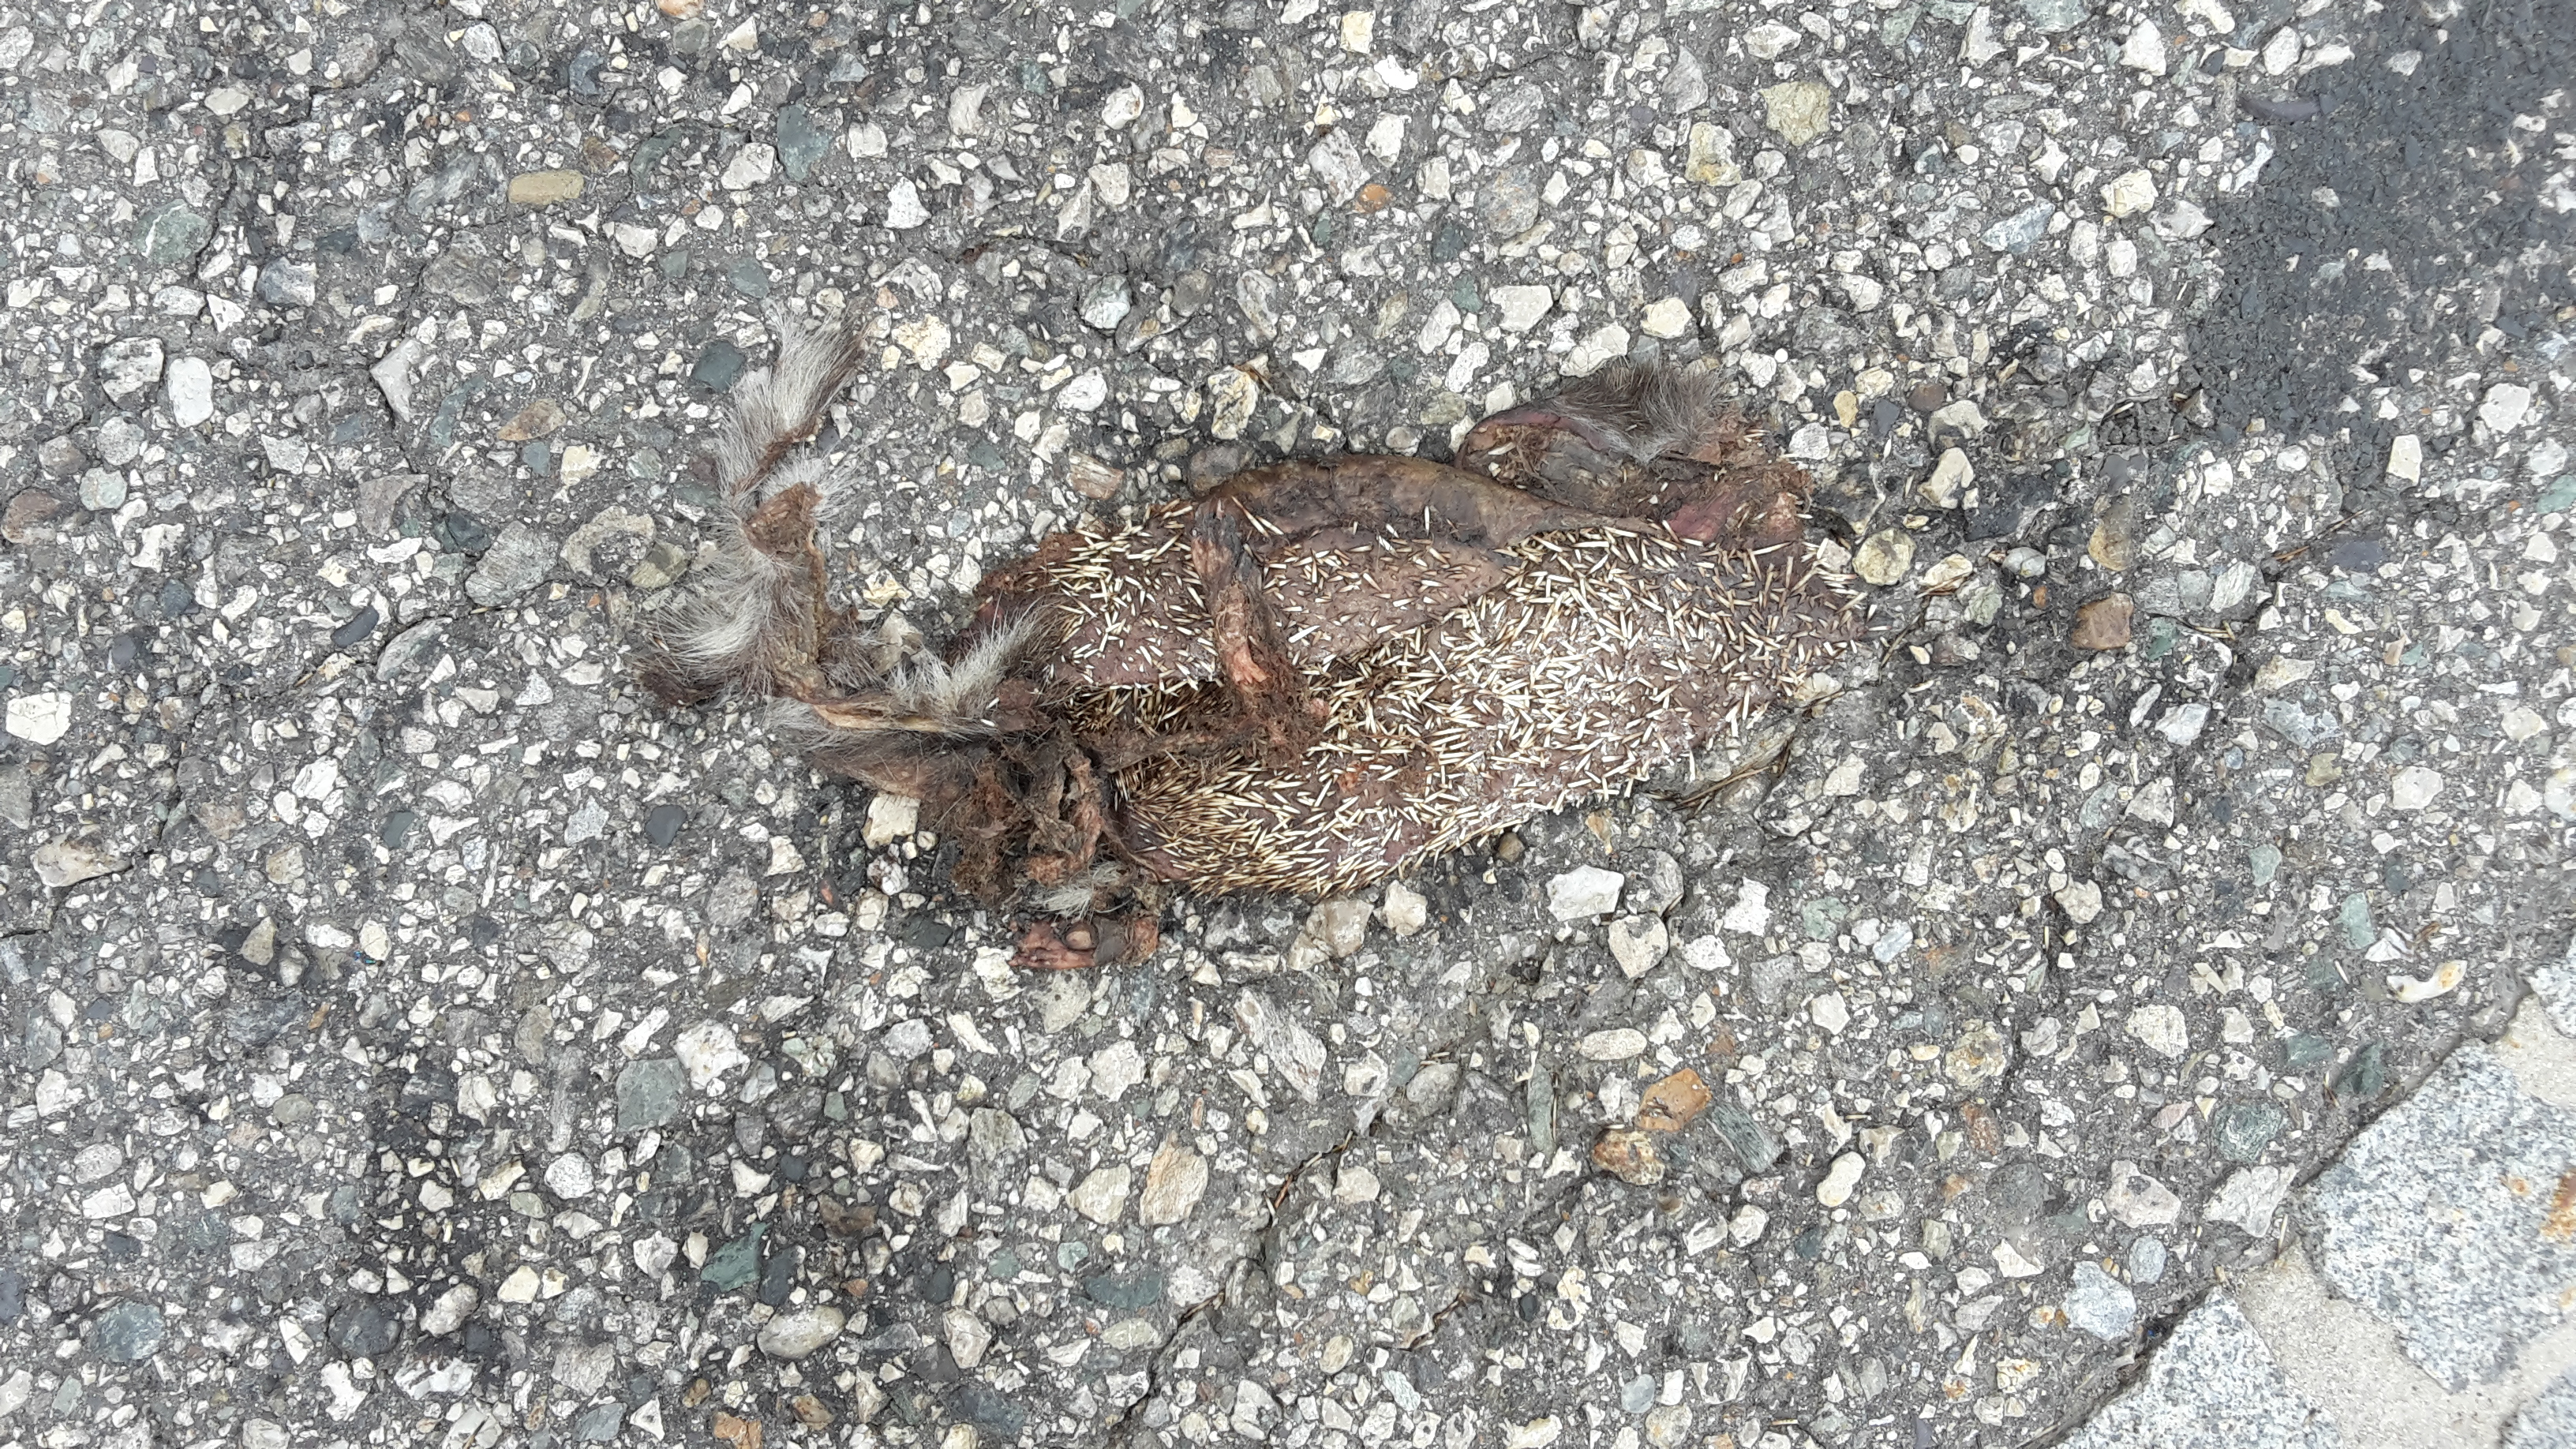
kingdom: Animalia
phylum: Chordata
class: Mammalia
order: Erinaceomorpha
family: Erinaceidae
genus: Erinaceus
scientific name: Erinaceus
